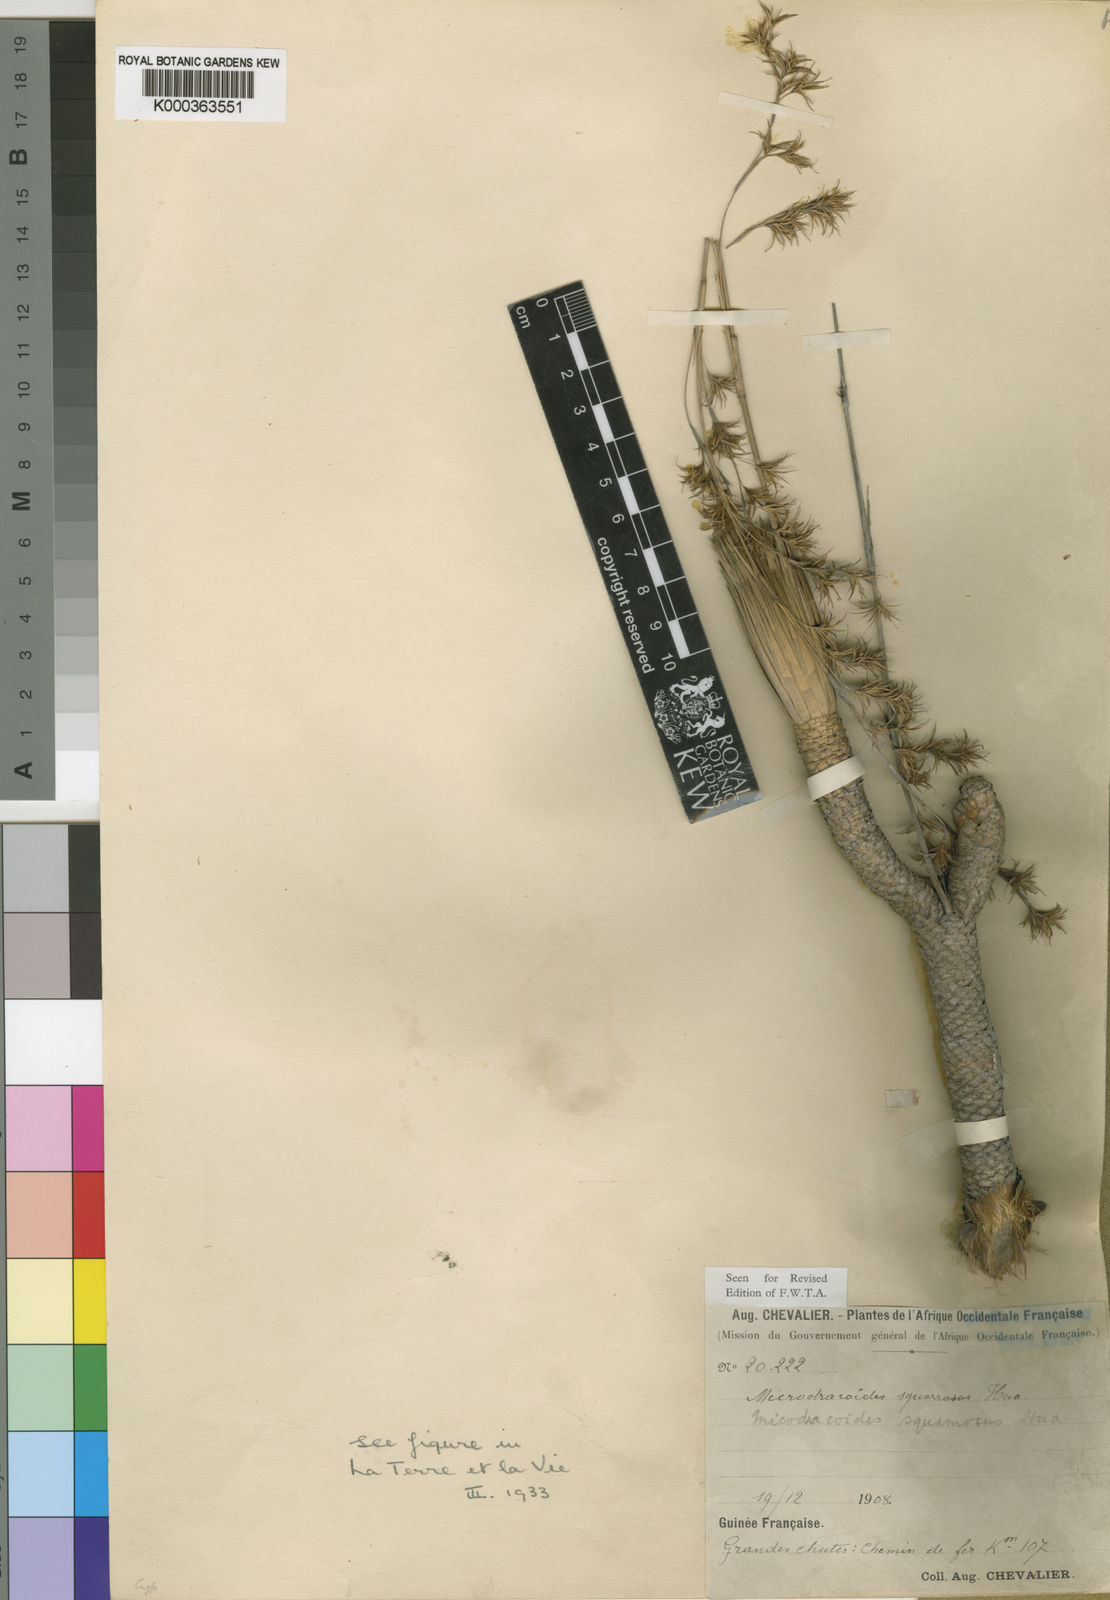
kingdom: Plantae
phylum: Tracheophyta
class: Liliopsida
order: Poales
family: Cyperaceae
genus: Microdracoides
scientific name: Microdracoides squamosa
